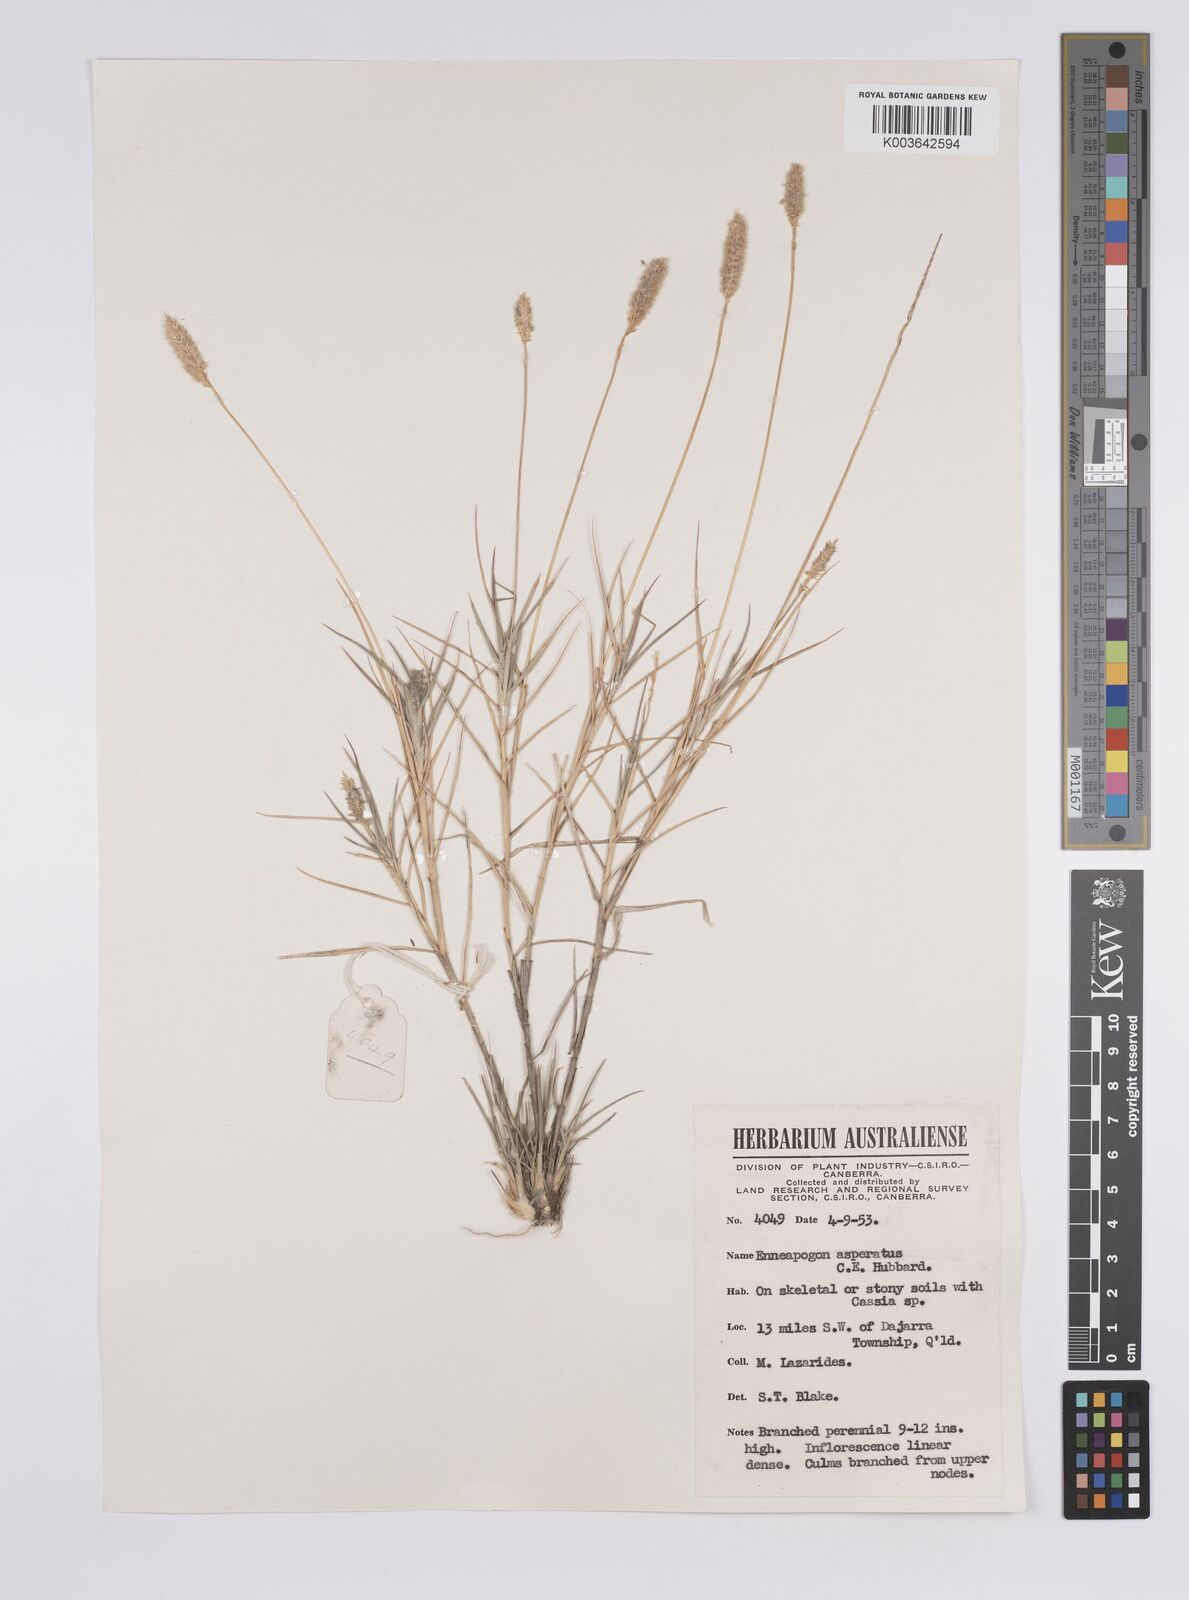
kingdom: Plantae
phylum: Tracheophyta
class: Liliopsida
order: Poales
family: Poaceae
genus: Enneapogon
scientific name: Enneapogon asperatus
